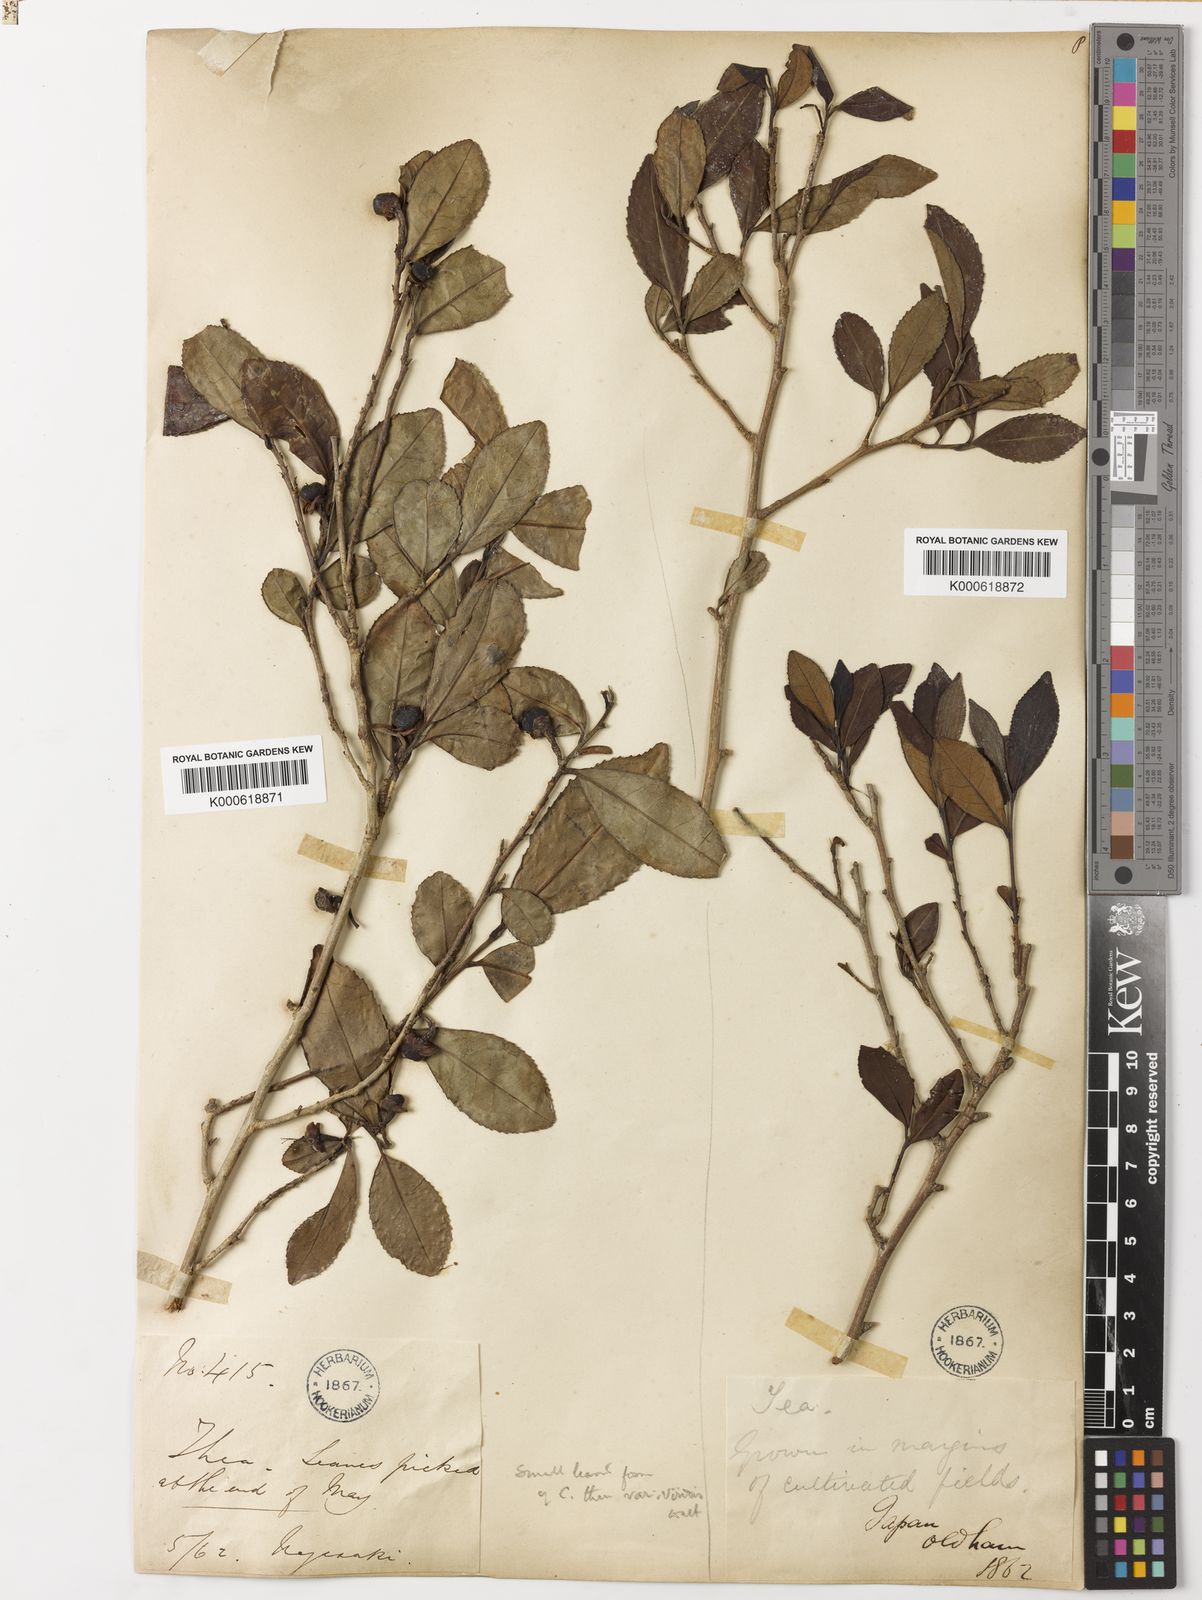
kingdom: Plantae
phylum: Tracheophyta
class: Magnoliopsida
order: Ericales
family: Theaceae
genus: Camellia
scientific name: Camellia sinensis
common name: Tea
